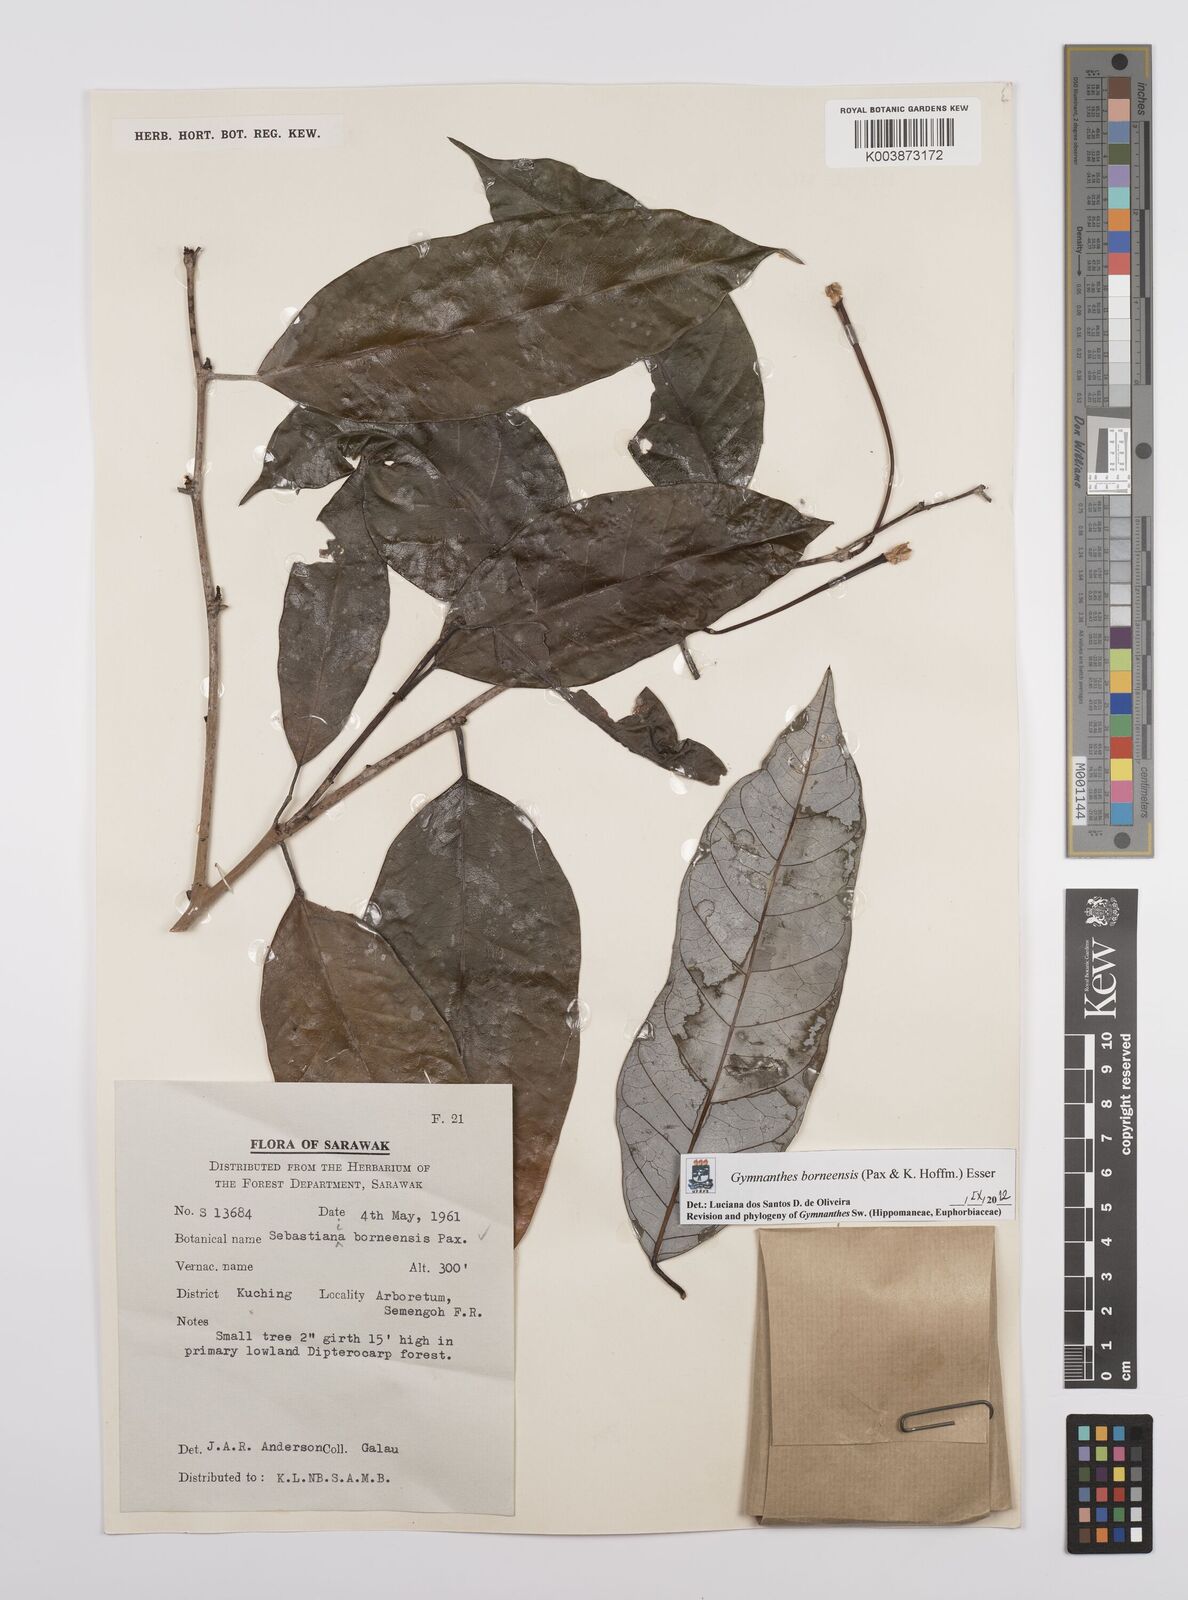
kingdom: Plantae
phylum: Tracheophyta
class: Magnoliopsida
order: Malpighiales
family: Euphorbiaceae
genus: Gymnanthes
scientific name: Gymnanthes borneensis
